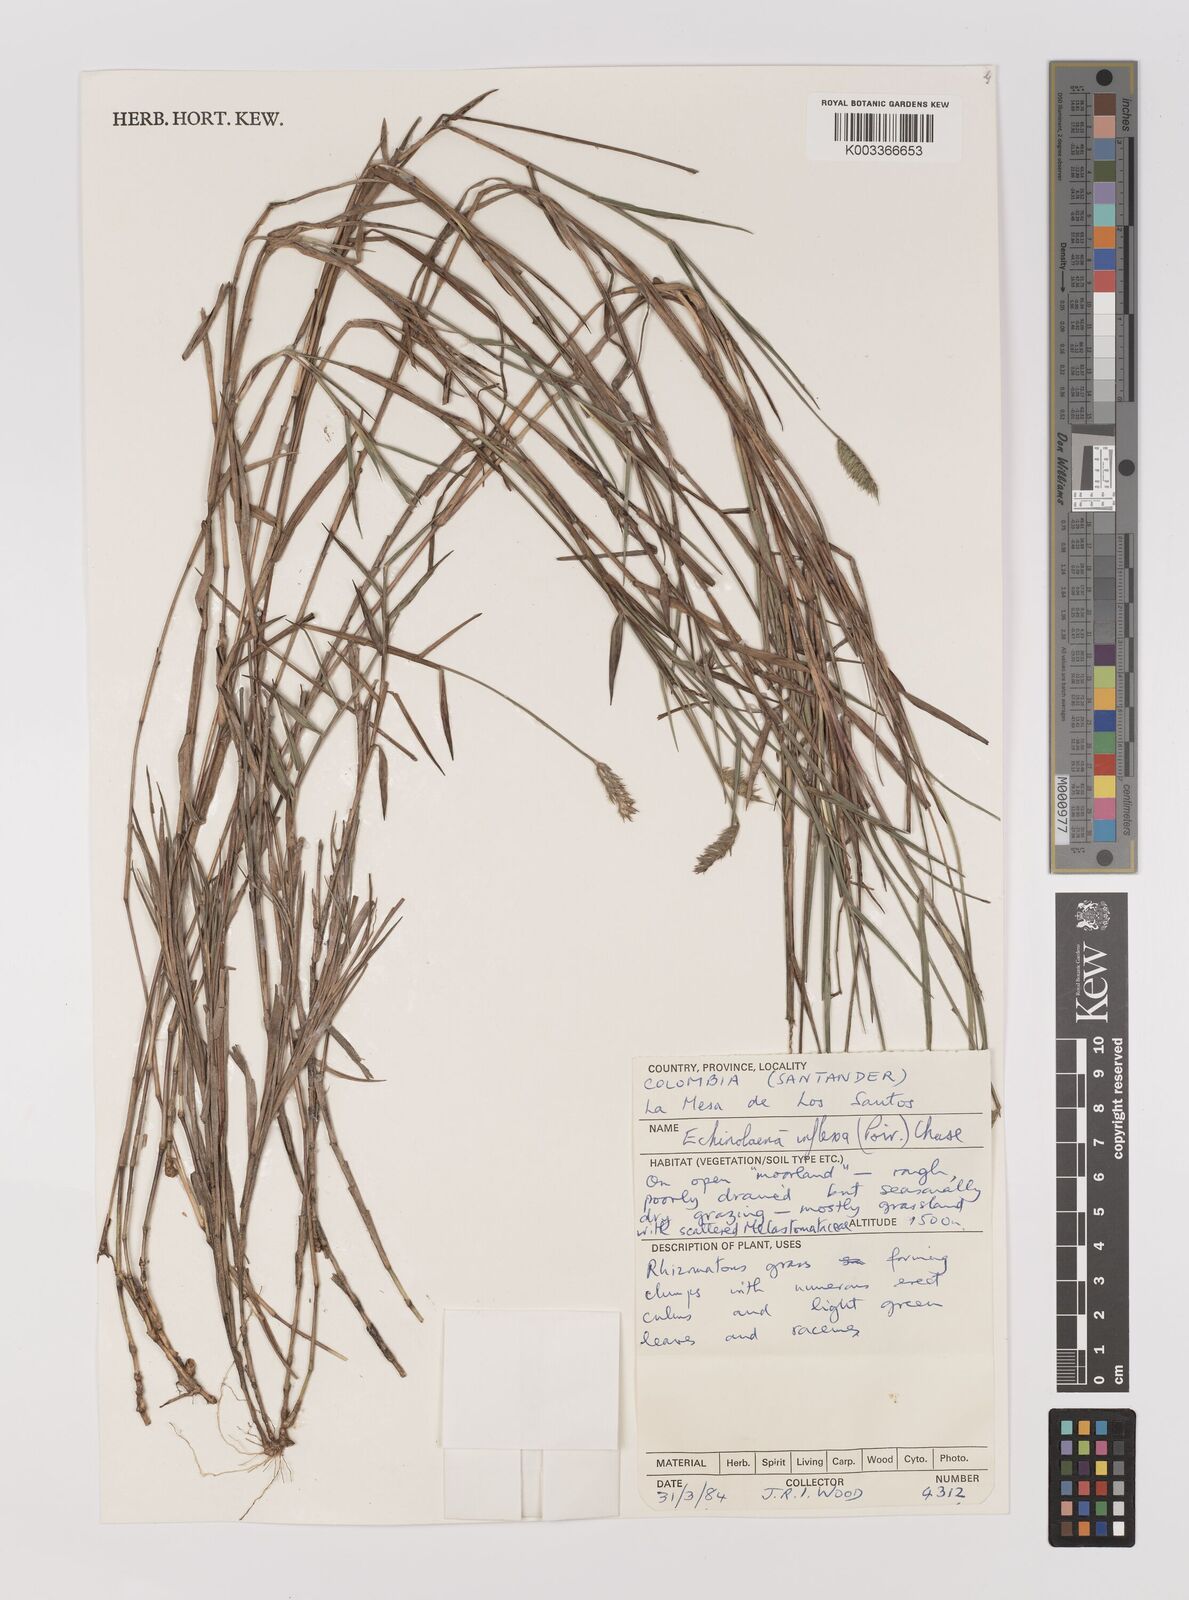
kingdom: Plantae
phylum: Tracheophyta
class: Liliopsida
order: Poales
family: Poaceae
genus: Echinolaena
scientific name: Echinolaena inflexa
